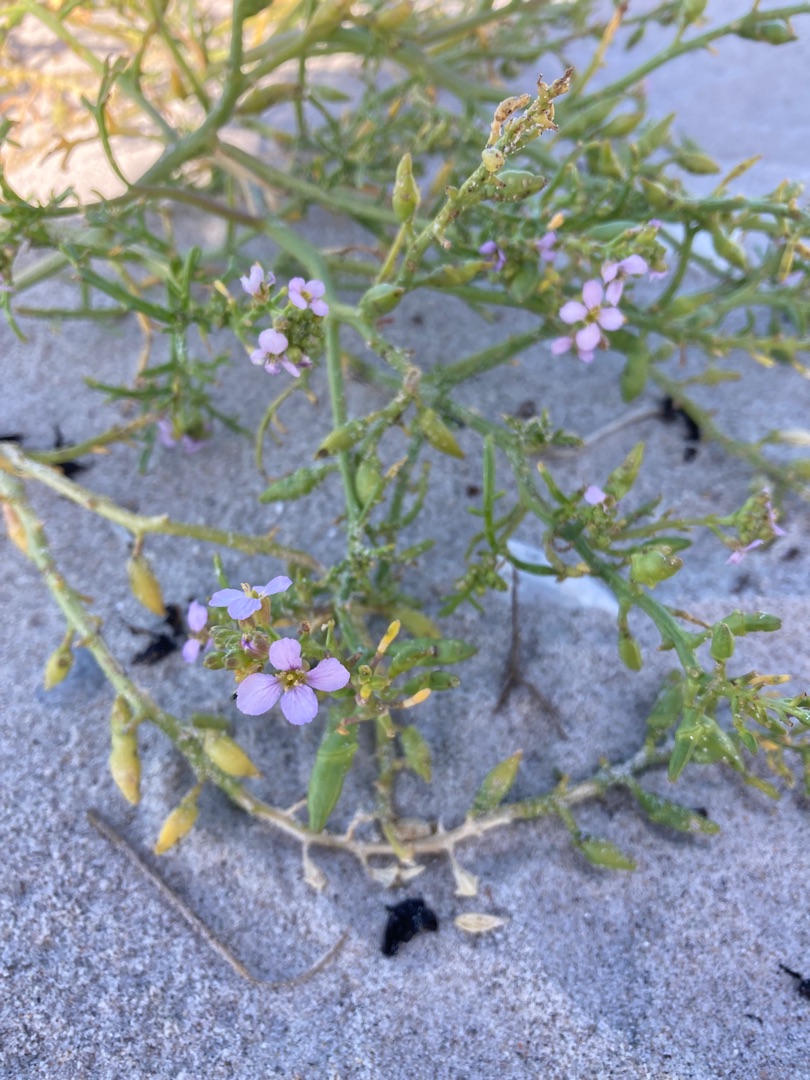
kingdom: Plantae
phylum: Tracheophyta
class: Magnoliopsida
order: Brassicales
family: Brassicaceae
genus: Cakile
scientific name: Cakile maritima
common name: Østersø-strandsennep
